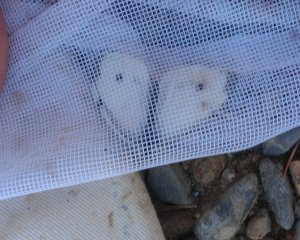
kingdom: Animalia
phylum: Arthropoda
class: Insecta
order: Lepidoptera
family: Pieridae
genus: Pieris
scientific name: Pieris rapae
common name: Cabbage White
